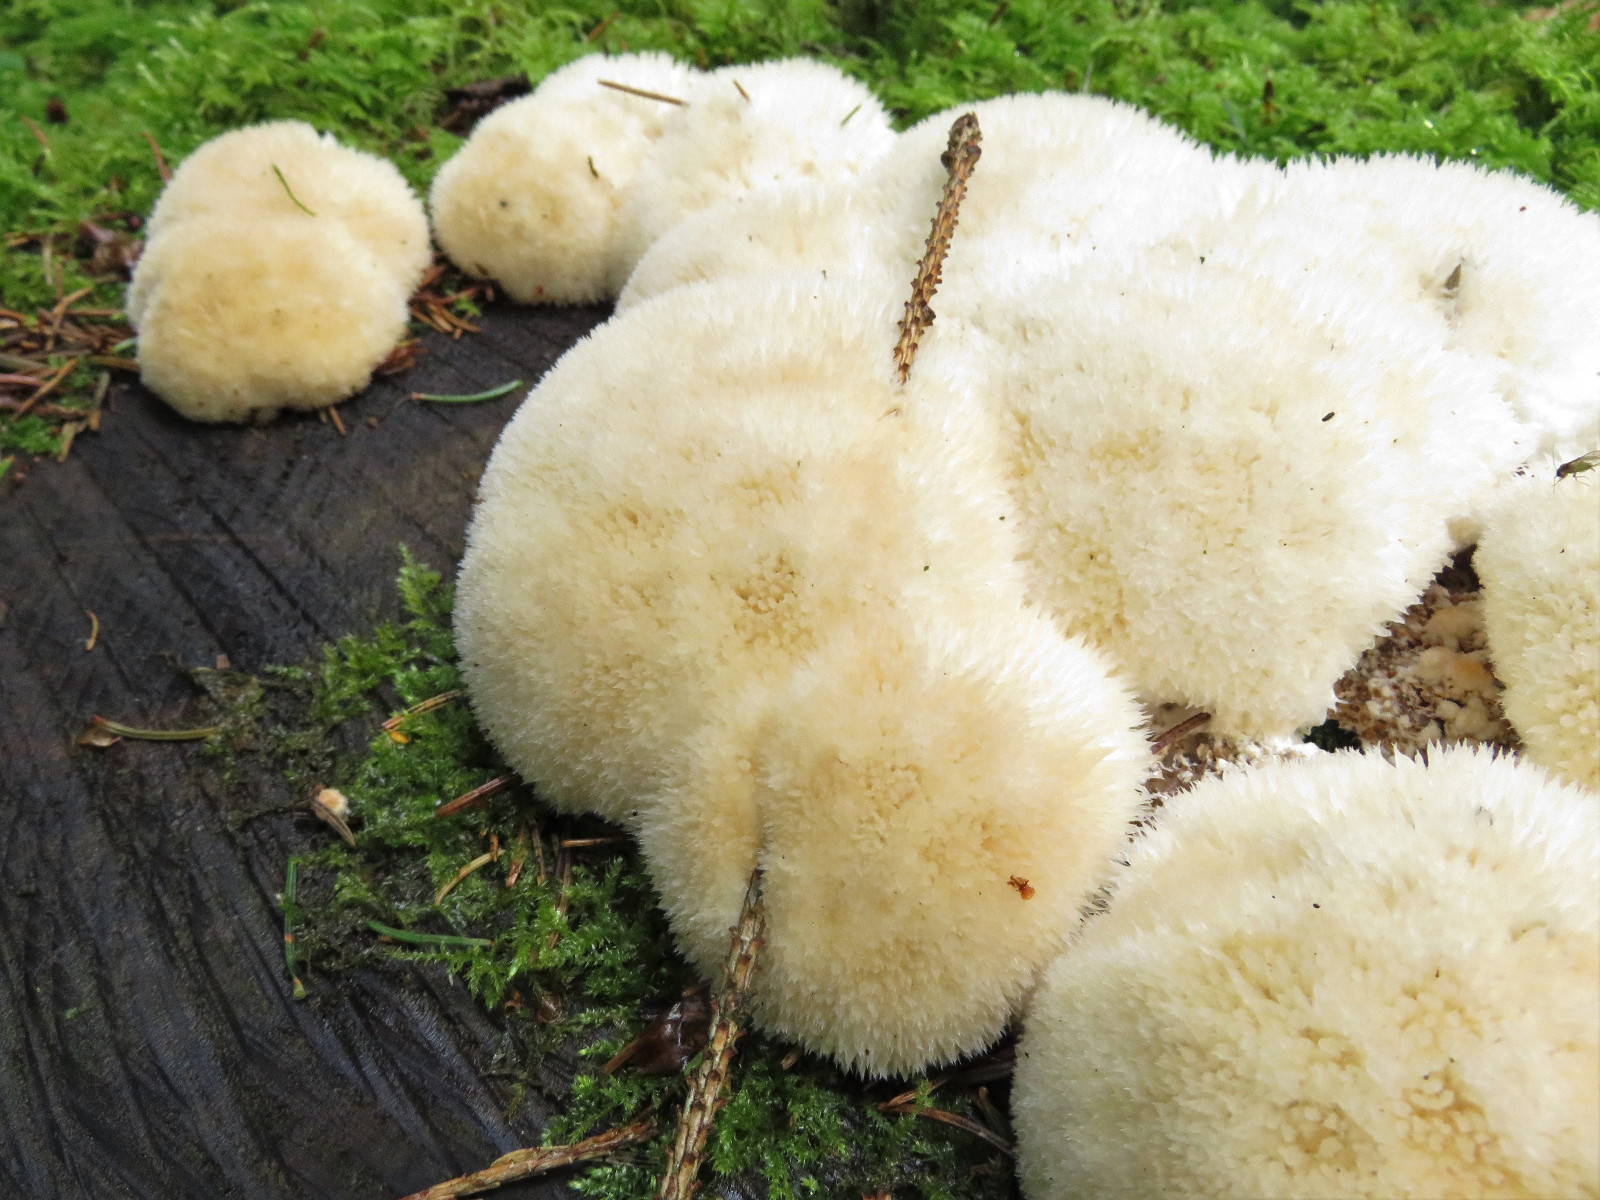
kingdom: Fungi
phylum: Basidiomycota
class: Agaricomycetes
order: Polyporales
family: Dacryobolaceae
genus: Postia
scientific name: Postia ptychogaster
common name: støvende kødporesvamp
